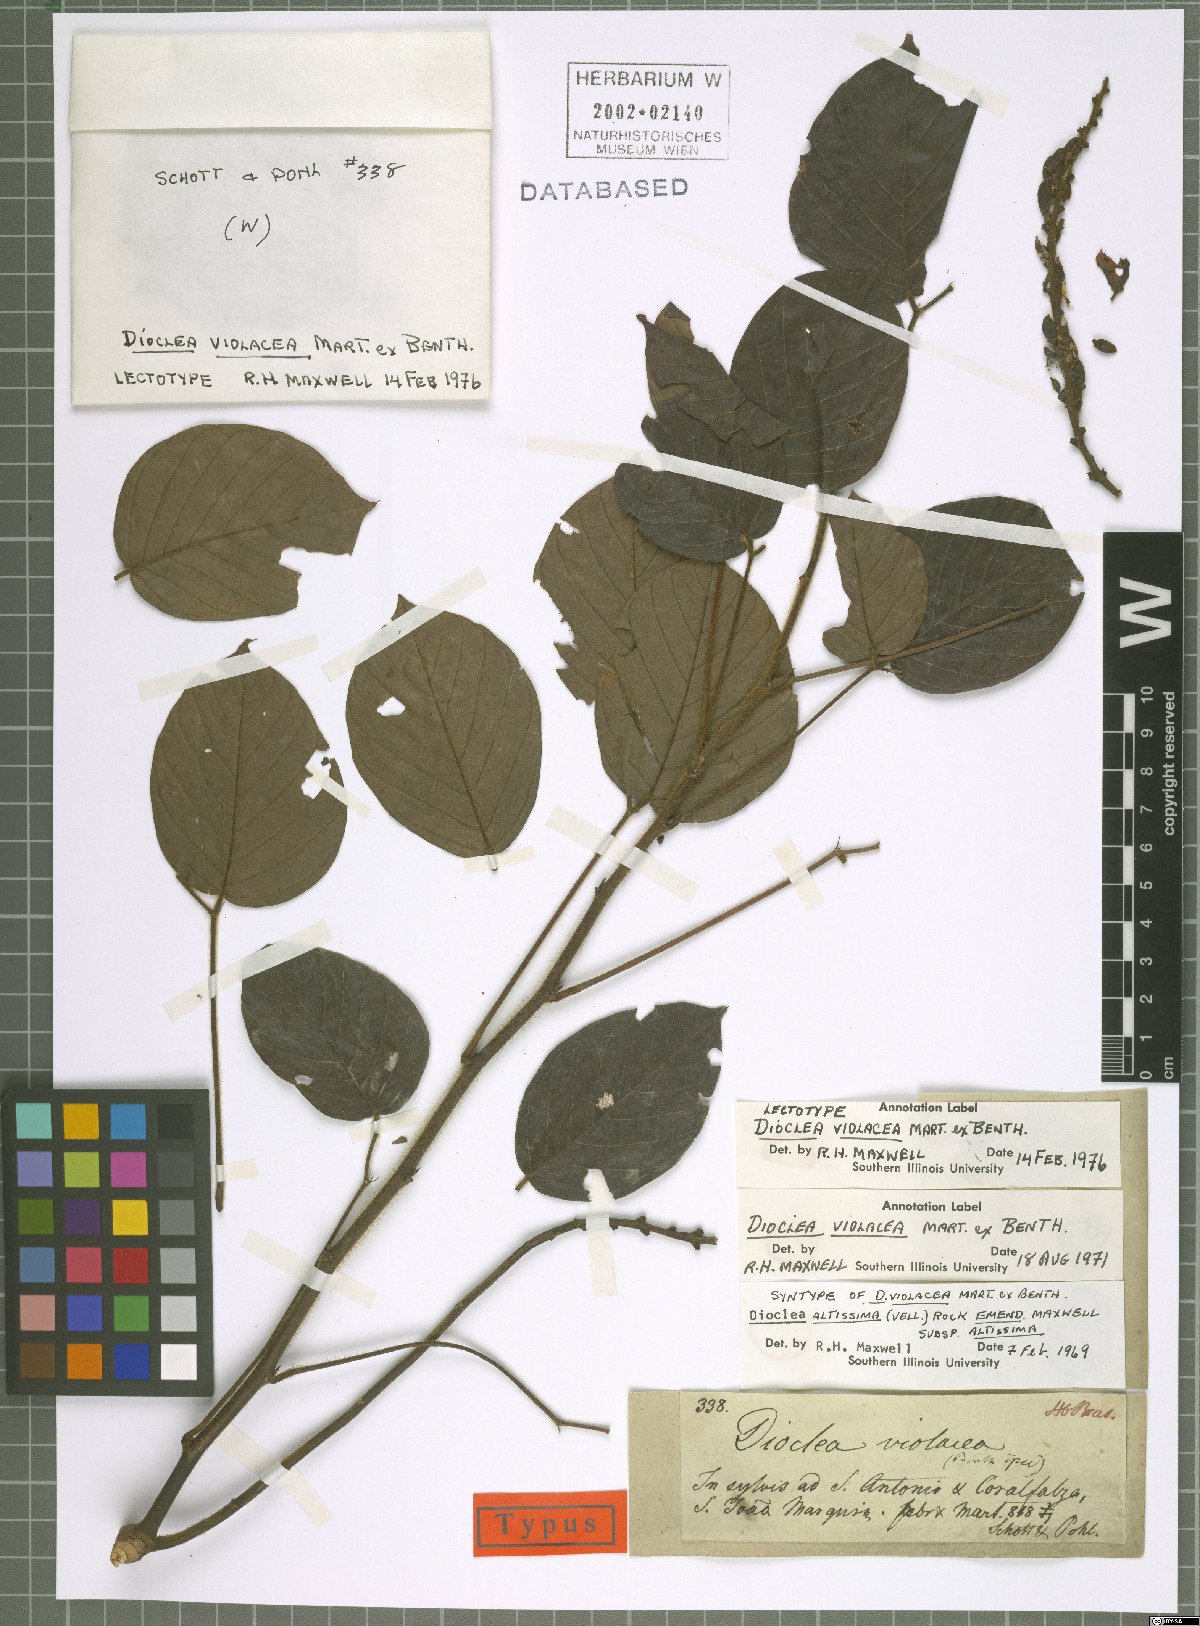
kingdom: Plantae
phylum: Tracheophyta
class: Magnoliopsida
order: Fabales
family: Fabaceae
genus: Macropsychanthus
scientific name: Macropsychanthus violaceus
